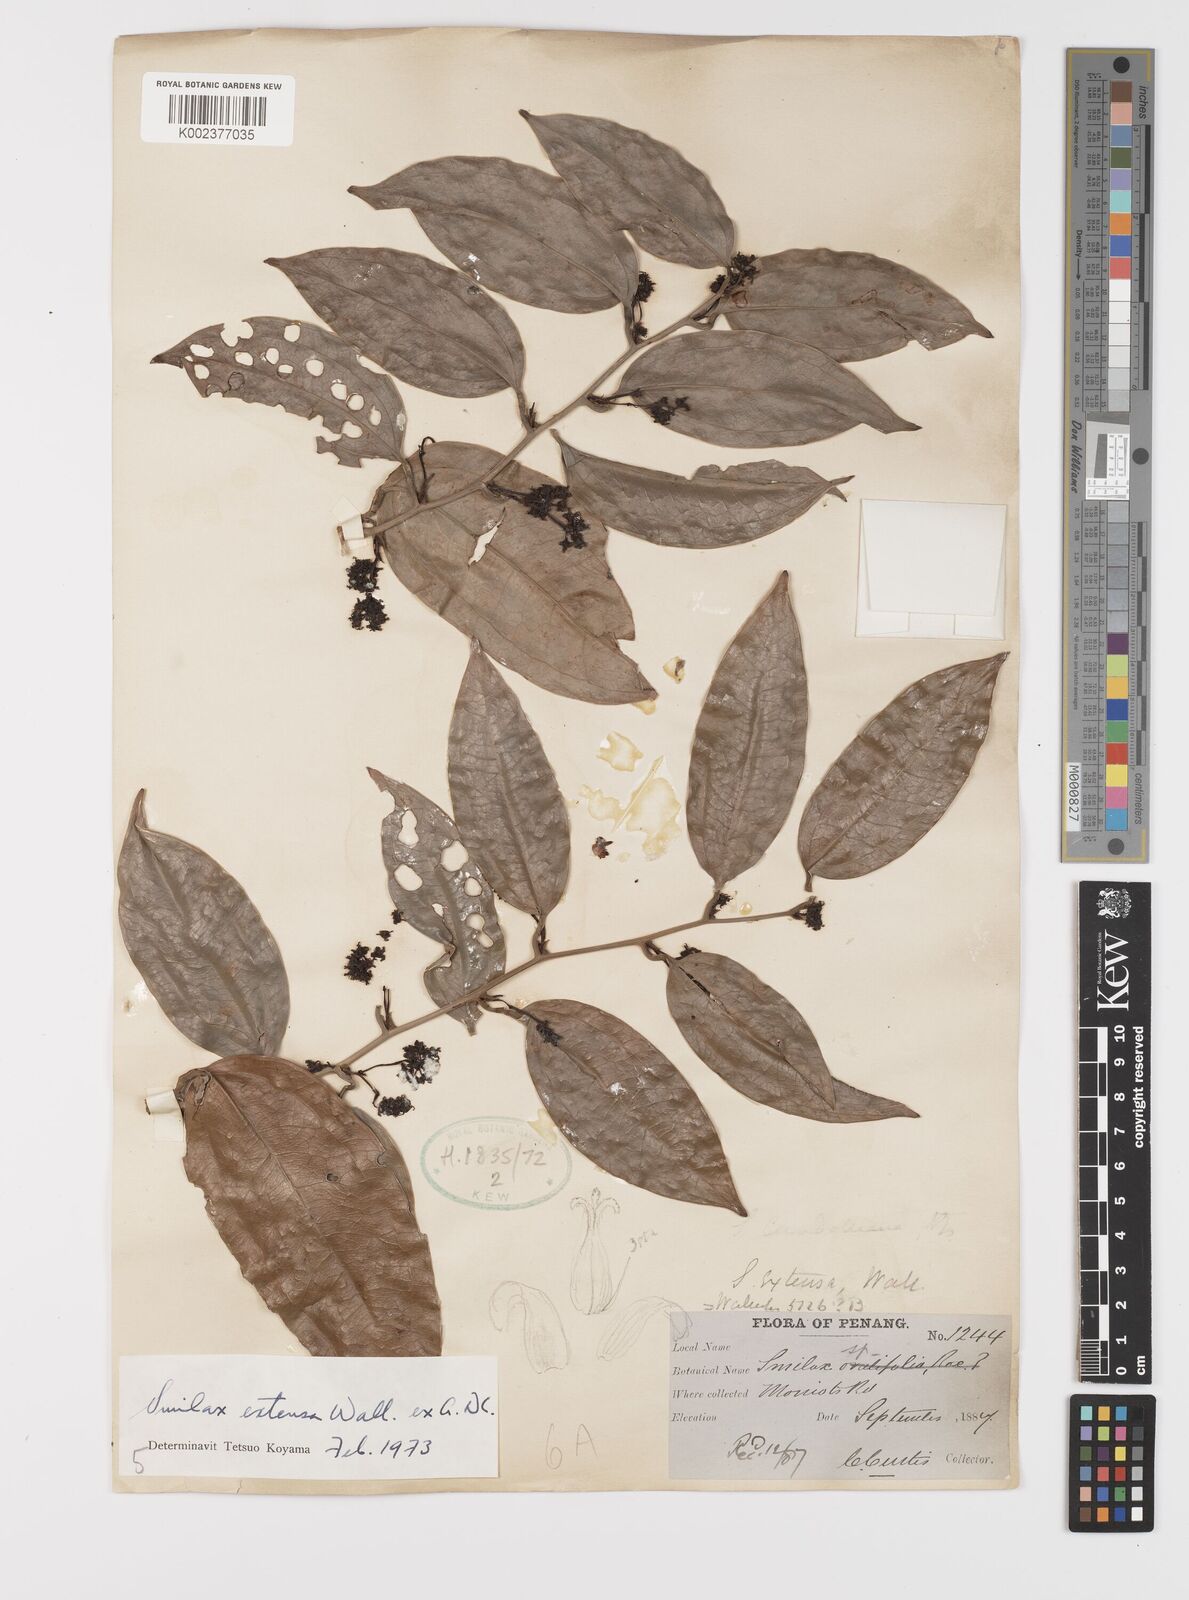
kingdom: Plantae
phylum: Tracheophyta
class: Liliopsida
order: Liliales
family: Smilacaceae
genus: Smilax
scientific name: Smilax extensa
